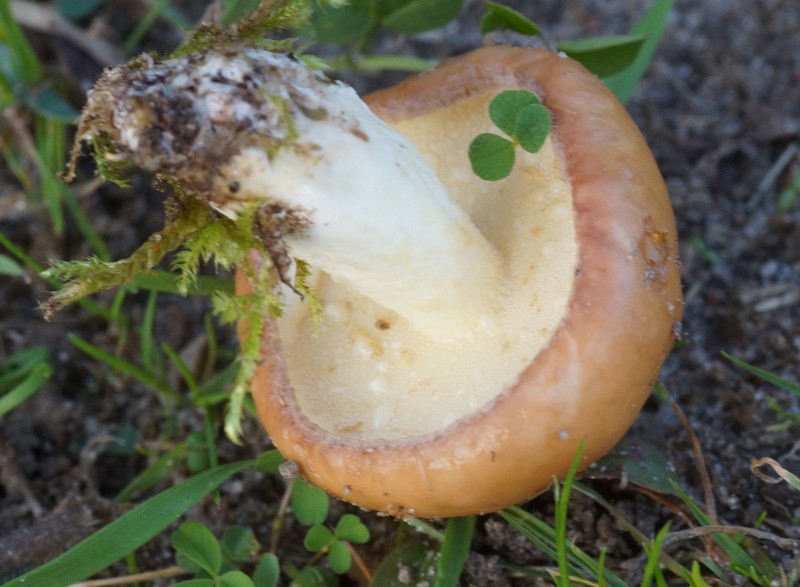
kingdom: Fungi
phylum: Basidiomycota
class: Agaricomycetes
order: Boletales
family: Suillaceae
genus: Suillus
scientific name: Suillus granulatus
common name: kornet slimrørhat
